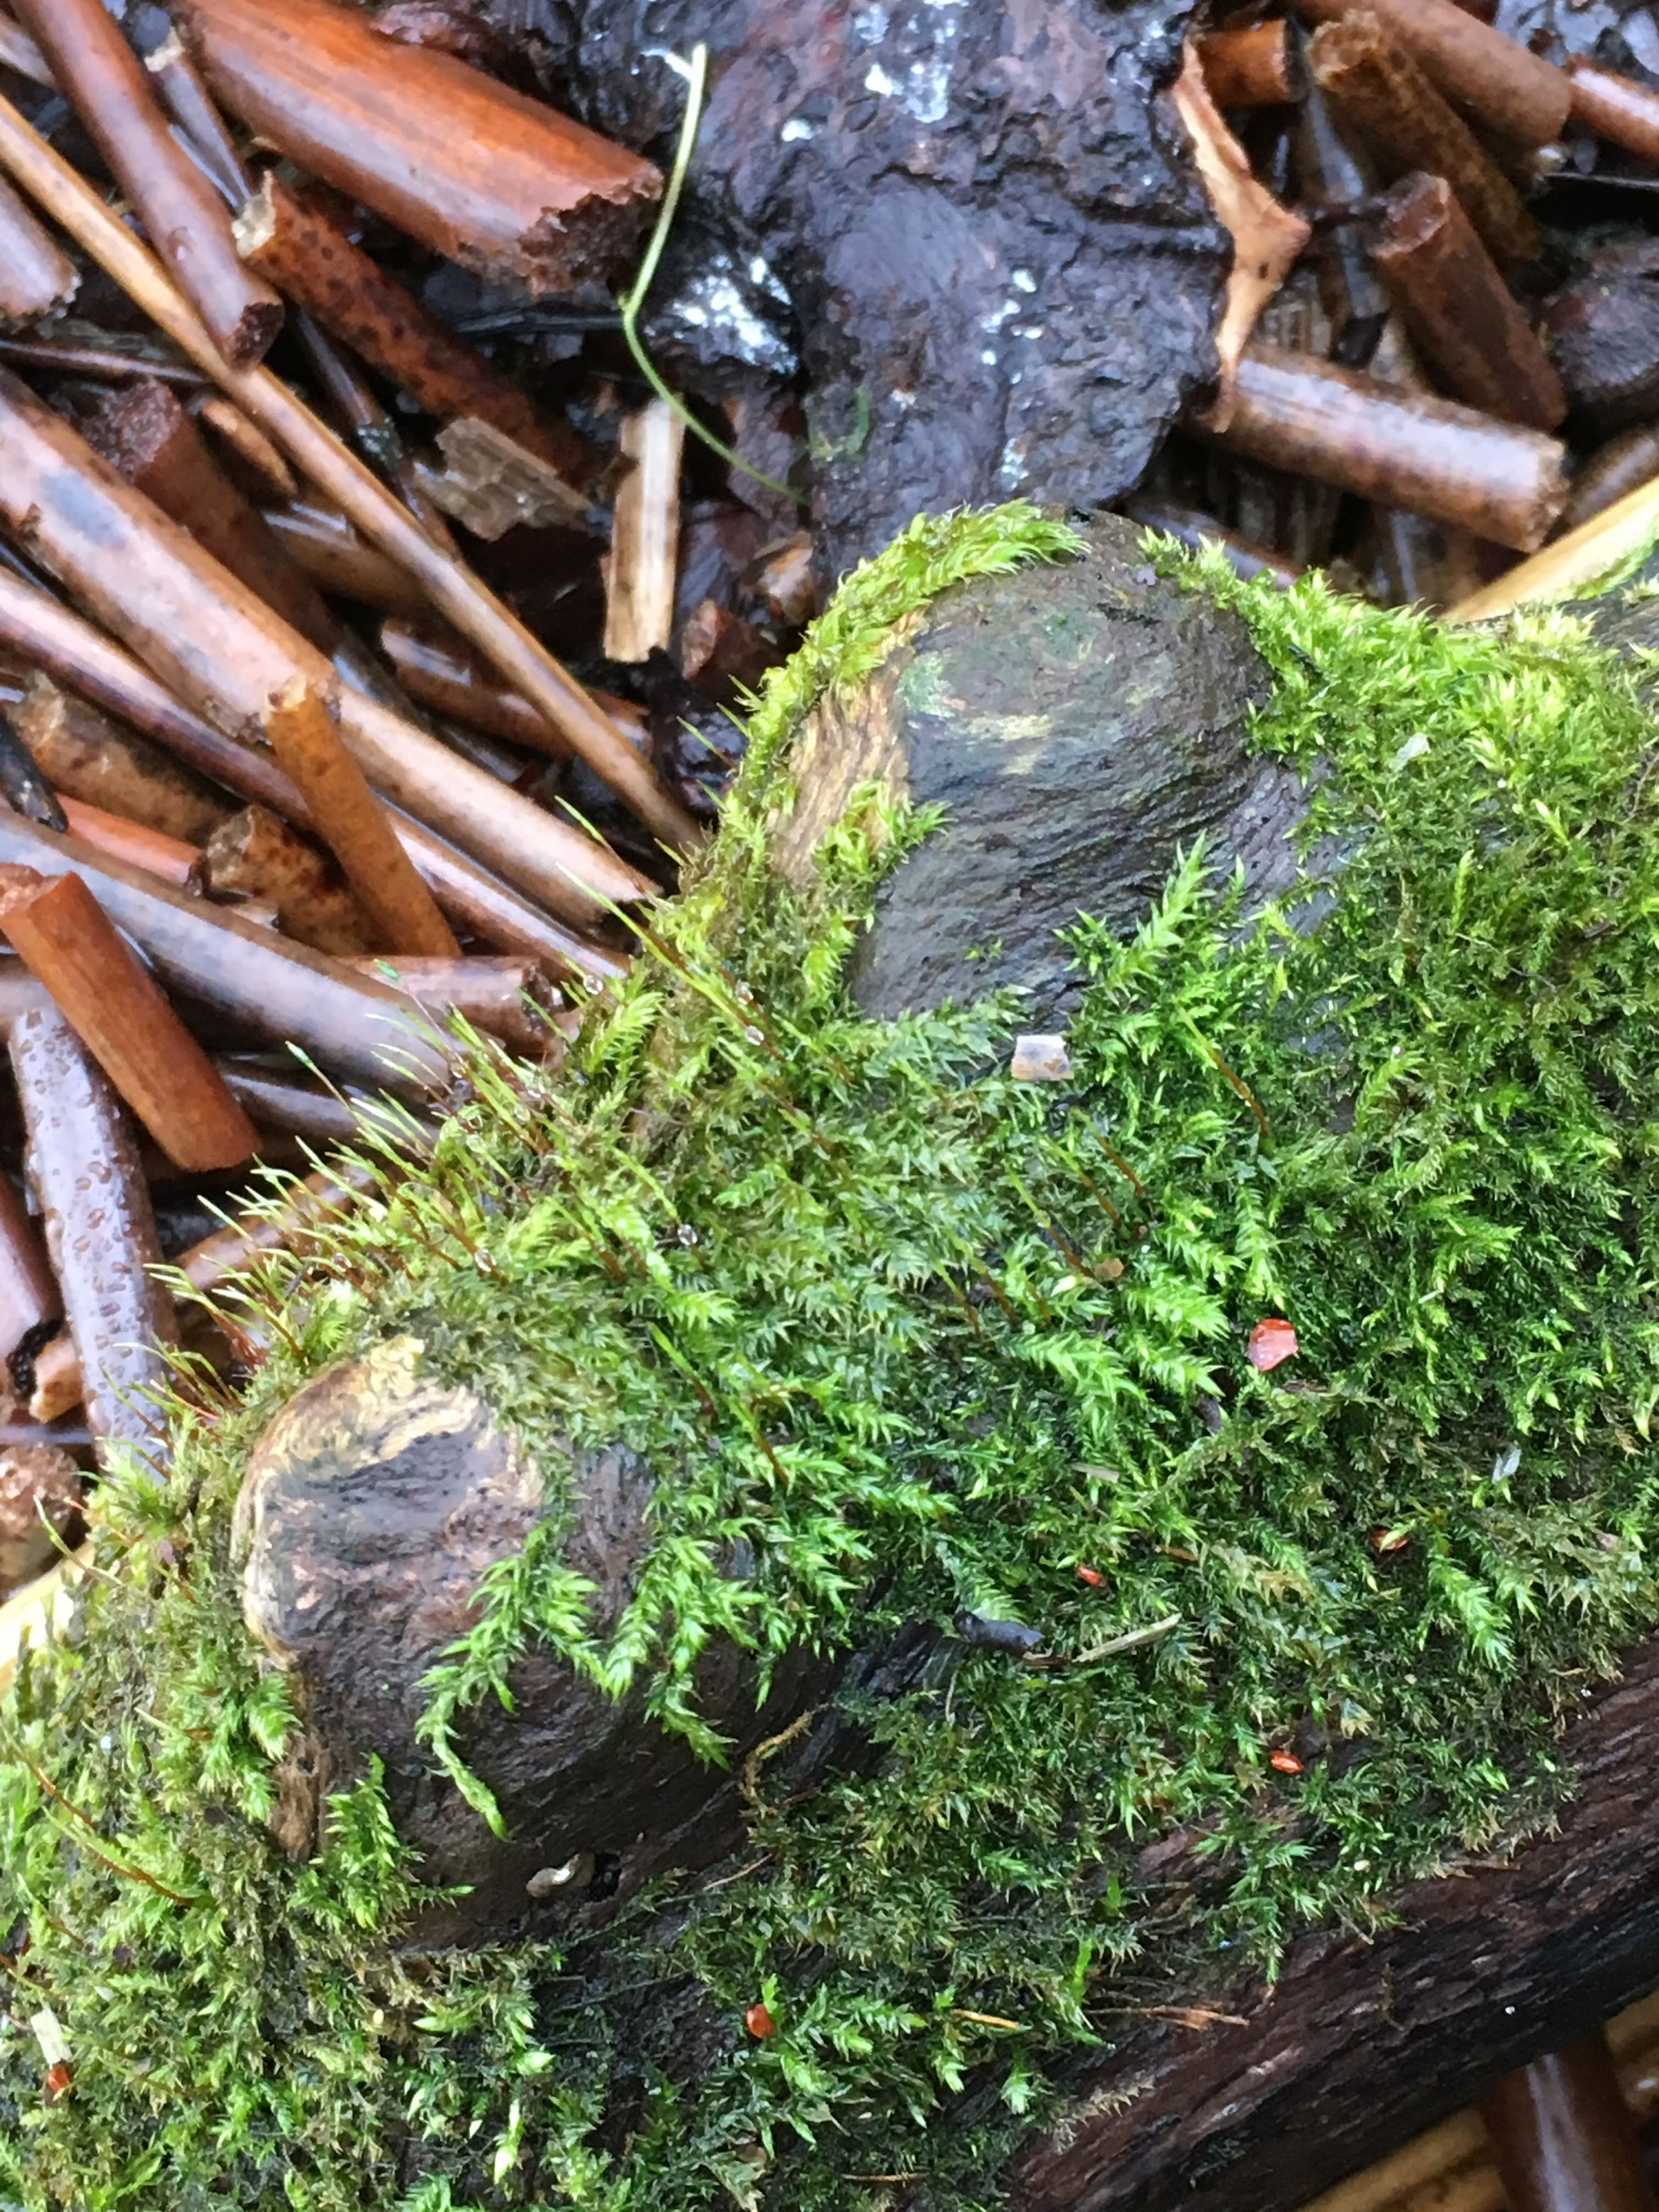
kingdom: Plantae
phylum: Bryophyta
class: Bryopsida
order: Hypnales
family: Amblystegiaceae
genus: Leptodictyum
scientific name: Leptodictyum riparium
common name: Stor pytmos
